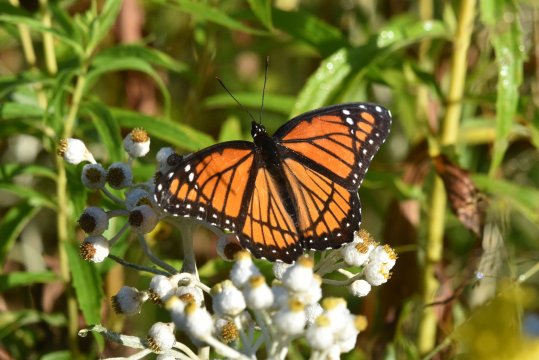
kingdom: Animalia
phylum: Arthropoda
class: Insecta
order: Lepidoptera
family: Nymphalidae
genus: Limenitis
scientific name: Limenitis archippus
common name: Viceroy
